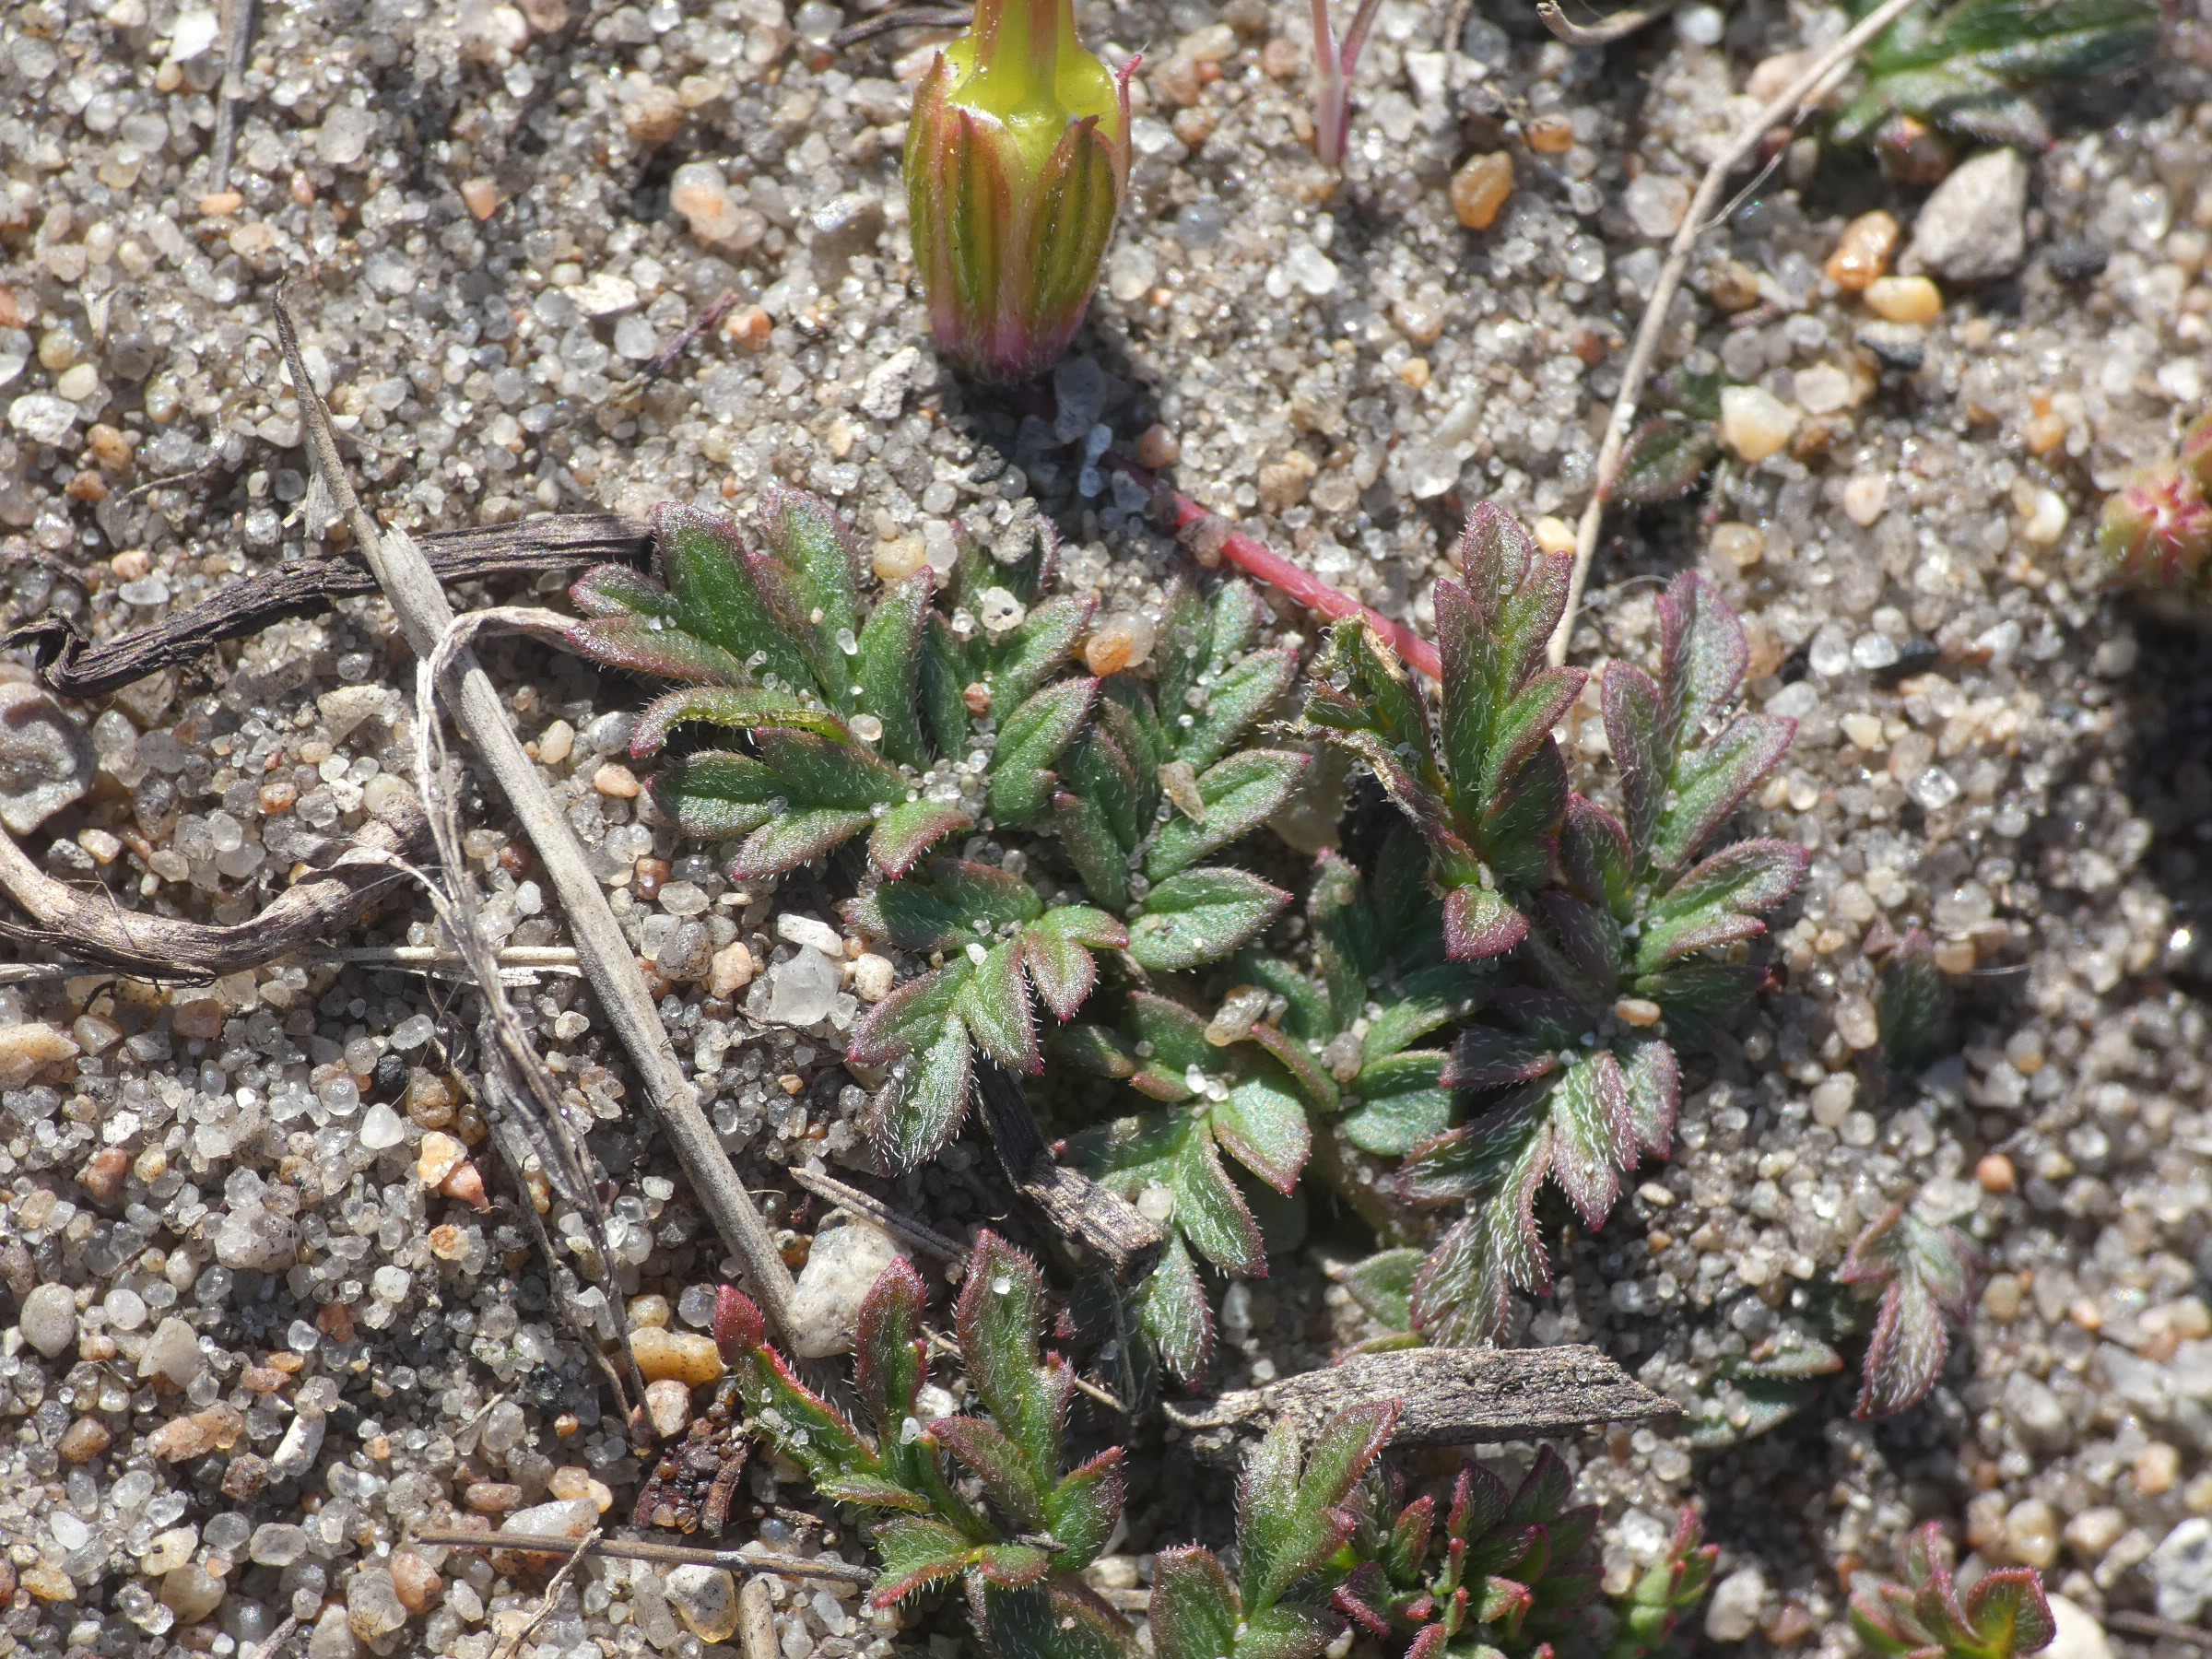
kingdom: Plantae
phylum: Tracheophyta
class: Magnoliopsida
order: Geraniales
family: Geraniaceae
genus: Erodium
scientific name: Erodium cicutarium
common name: Hejrenæb
